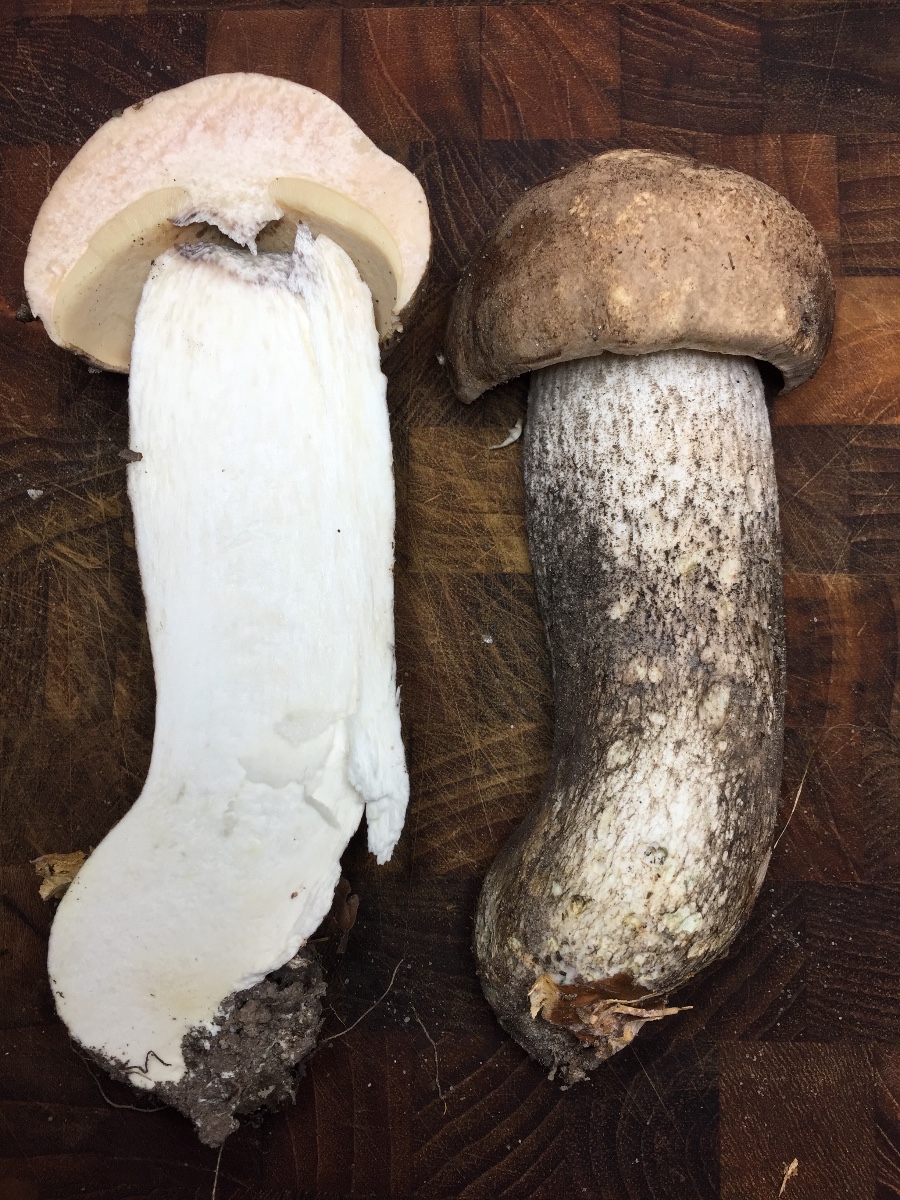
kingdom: Fungi
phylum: Basidiomycota
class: Agaricomycetes
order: Boletales
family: Boletaceae
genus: Leccinum
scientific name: Leccinum duriusculum
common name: poppel-skælrørhat
